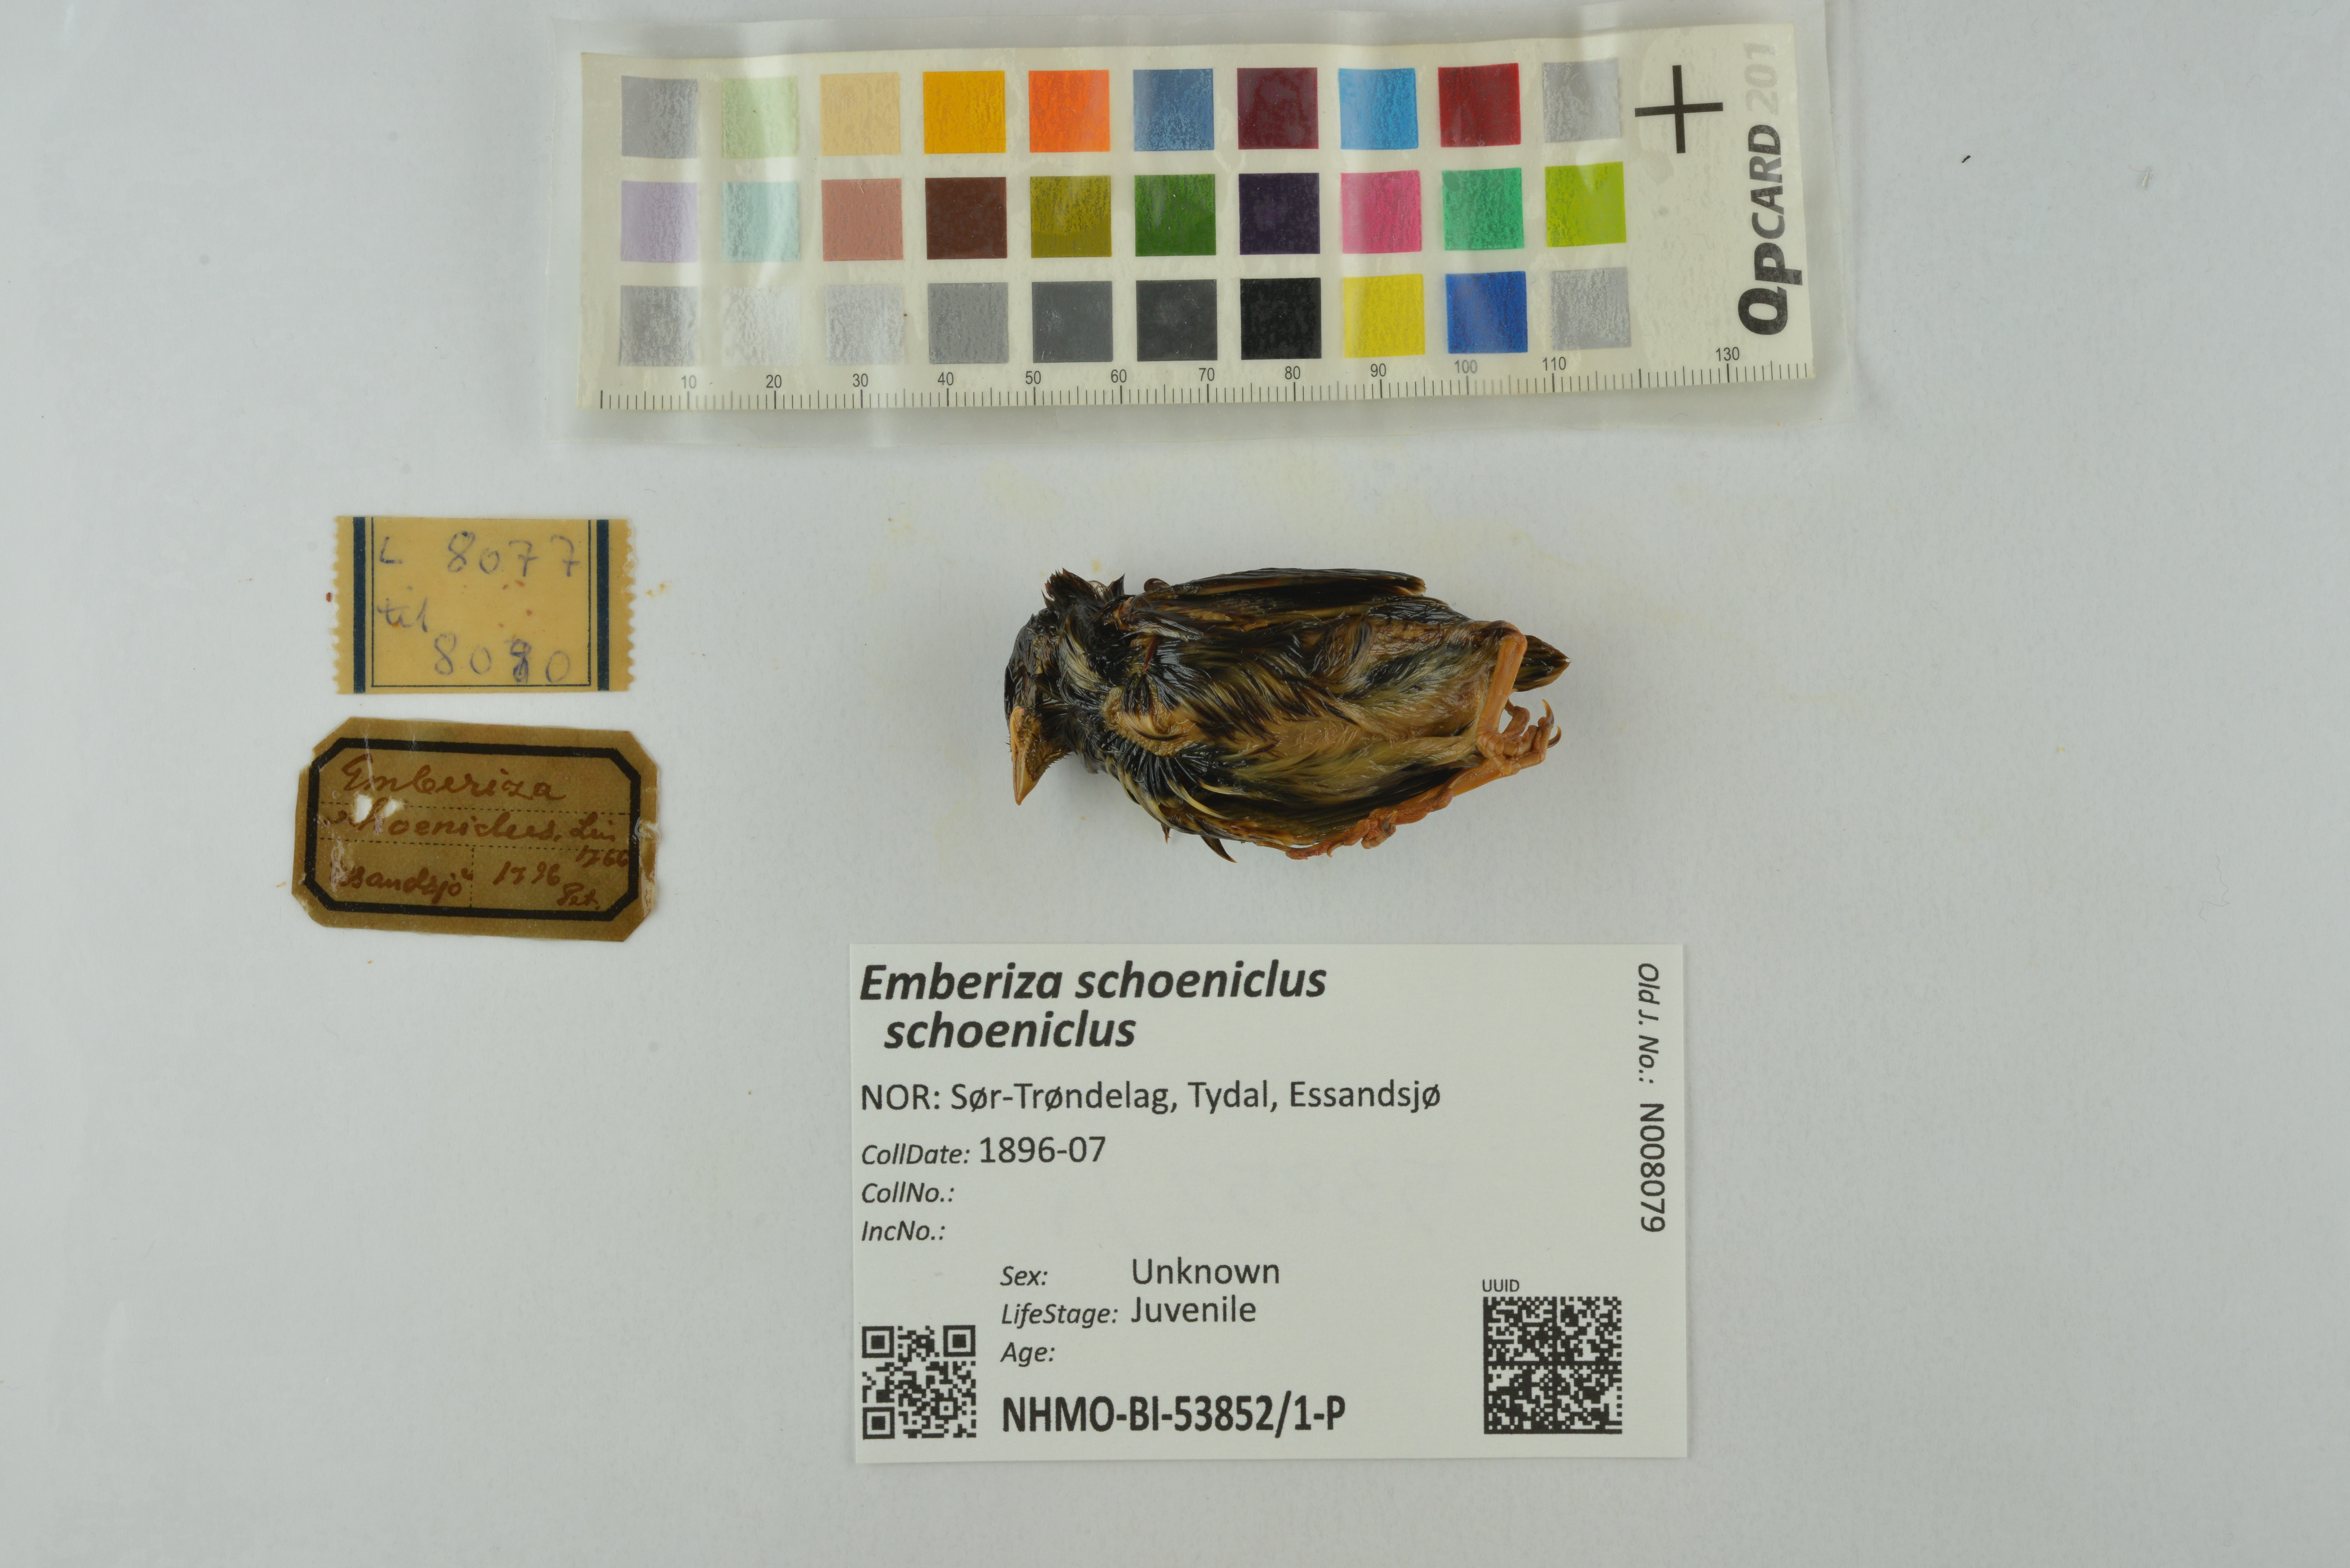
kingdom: Animalia
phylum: Chordata
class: Aves
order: Passeriformes
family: Emberizidae
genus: Emberiza
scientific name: Emberiza schoeniclus
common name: Reed bunting
